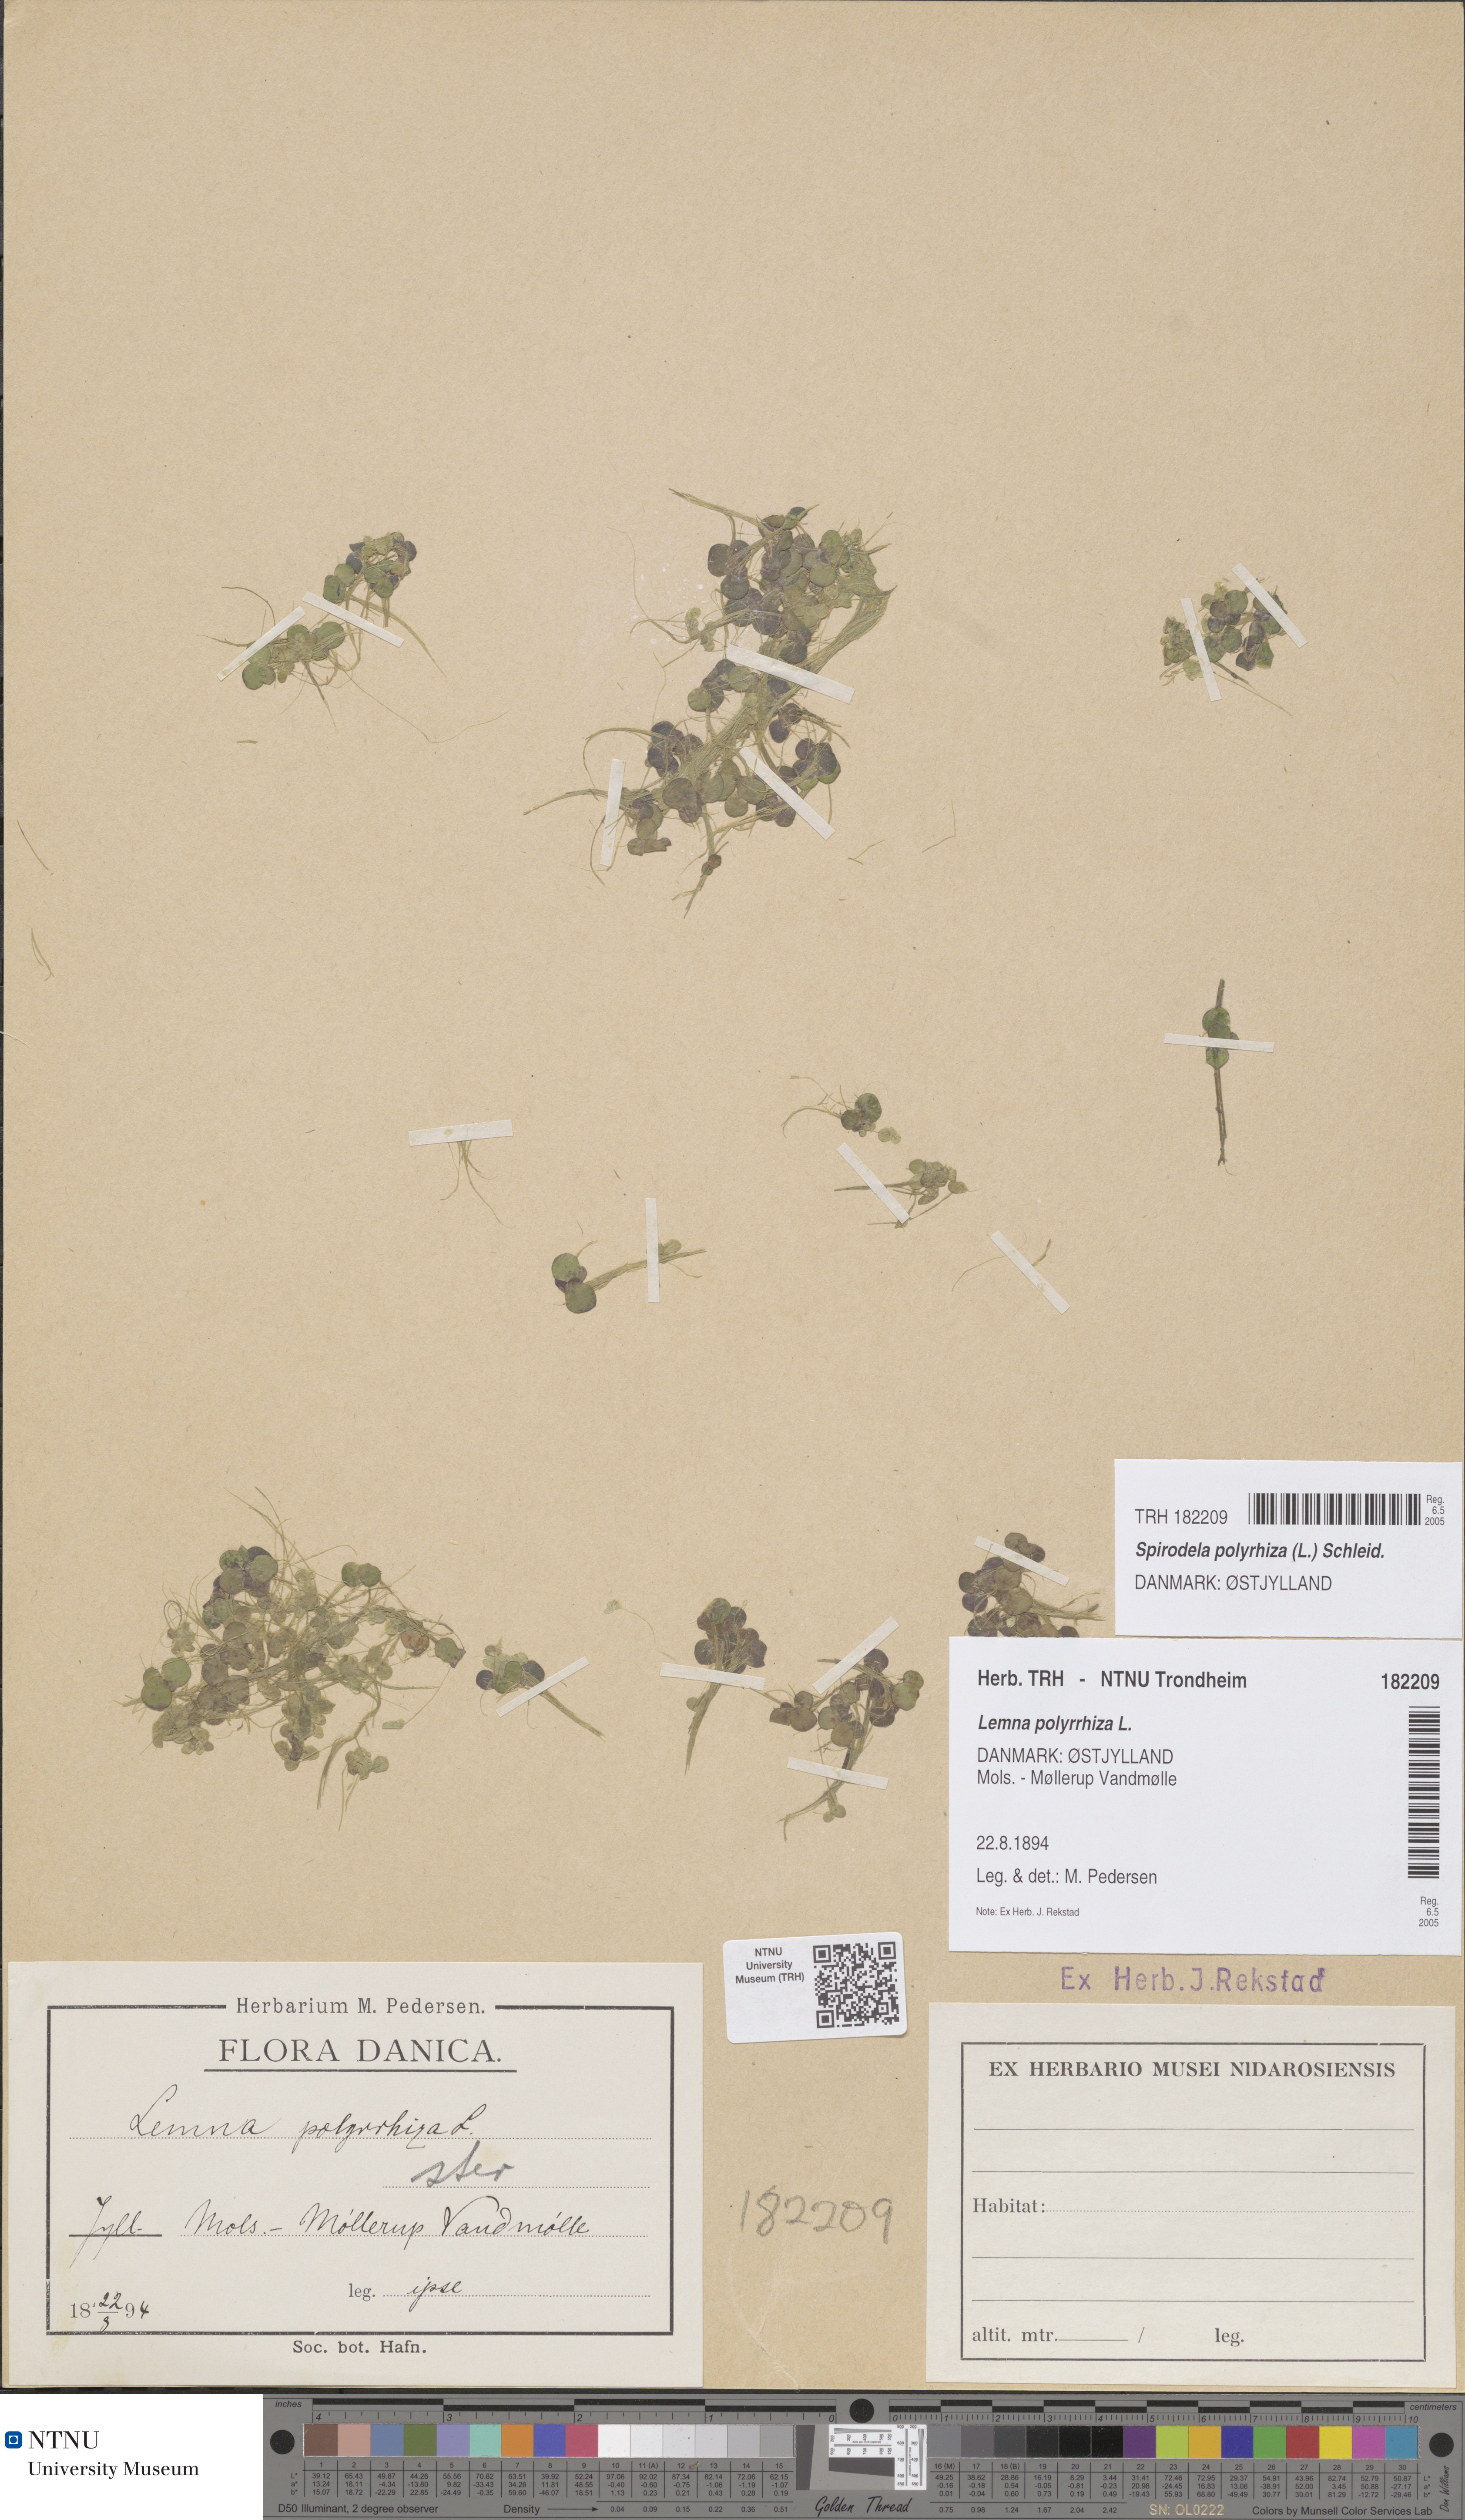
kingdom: Plantae
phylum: Tracheophyta
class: Liliopsida
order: Alismatales
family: Araceae
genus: Spirodela
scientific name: Spirodela polyrhiza
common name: Great duckweed
